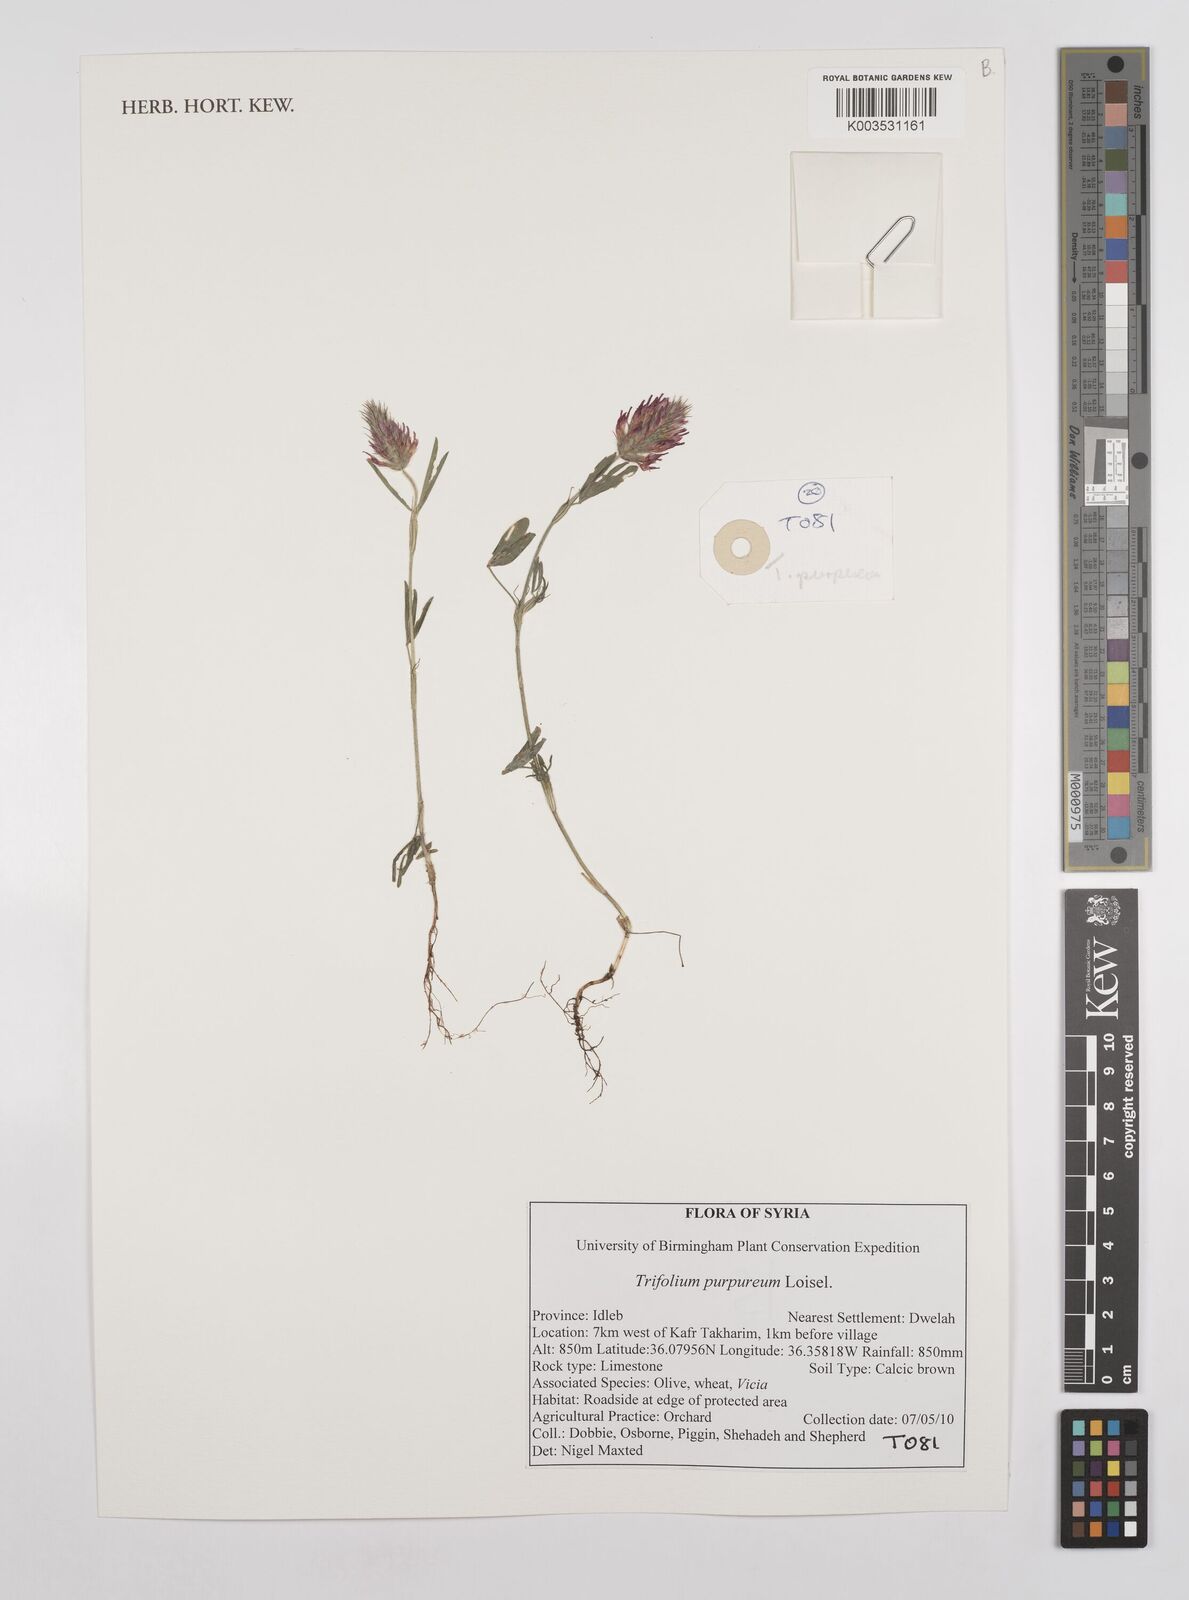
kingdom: Plantae
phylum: Tracheophyta
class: Magnoliopsida
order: Fabales
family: Fabaceae
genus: Trifolium
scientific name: Trifolium purpureum
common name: Purple clover
